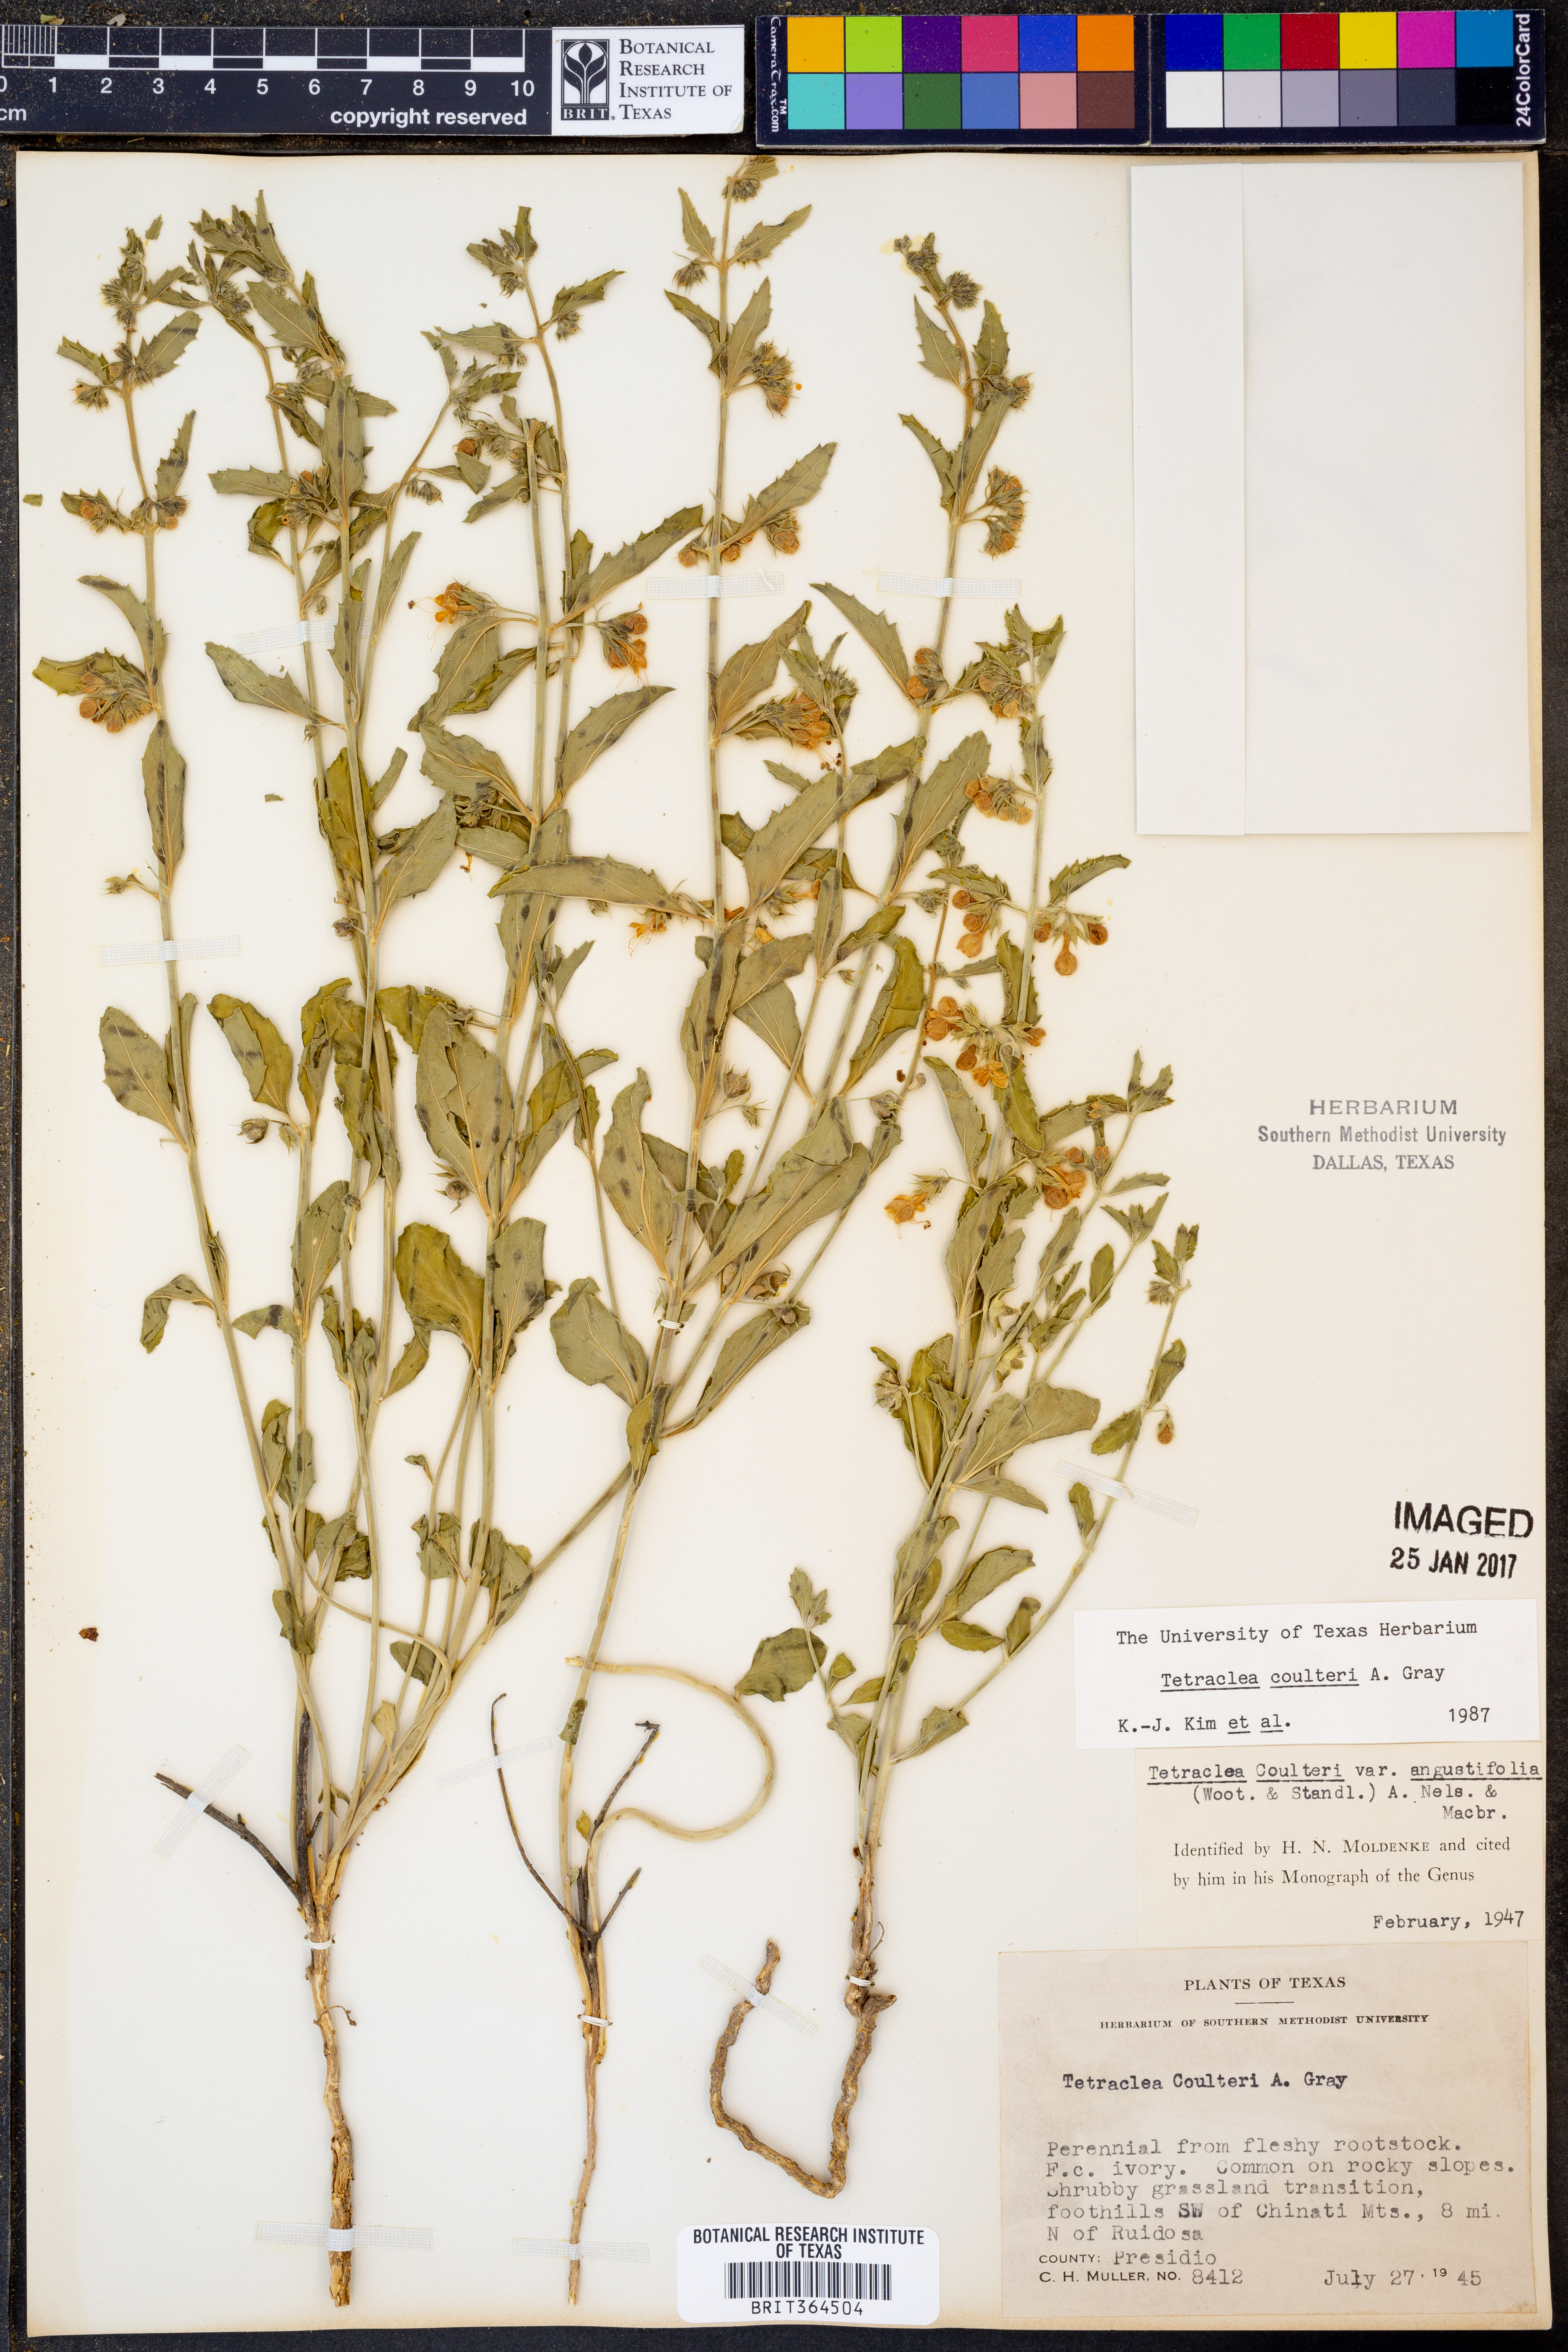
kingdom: Plantae
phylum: Tracheophyta
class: Magnoliopsida
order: Lamiales
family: Lamiaceae
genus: Tetraclea
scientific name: Tetraclea coulteri
